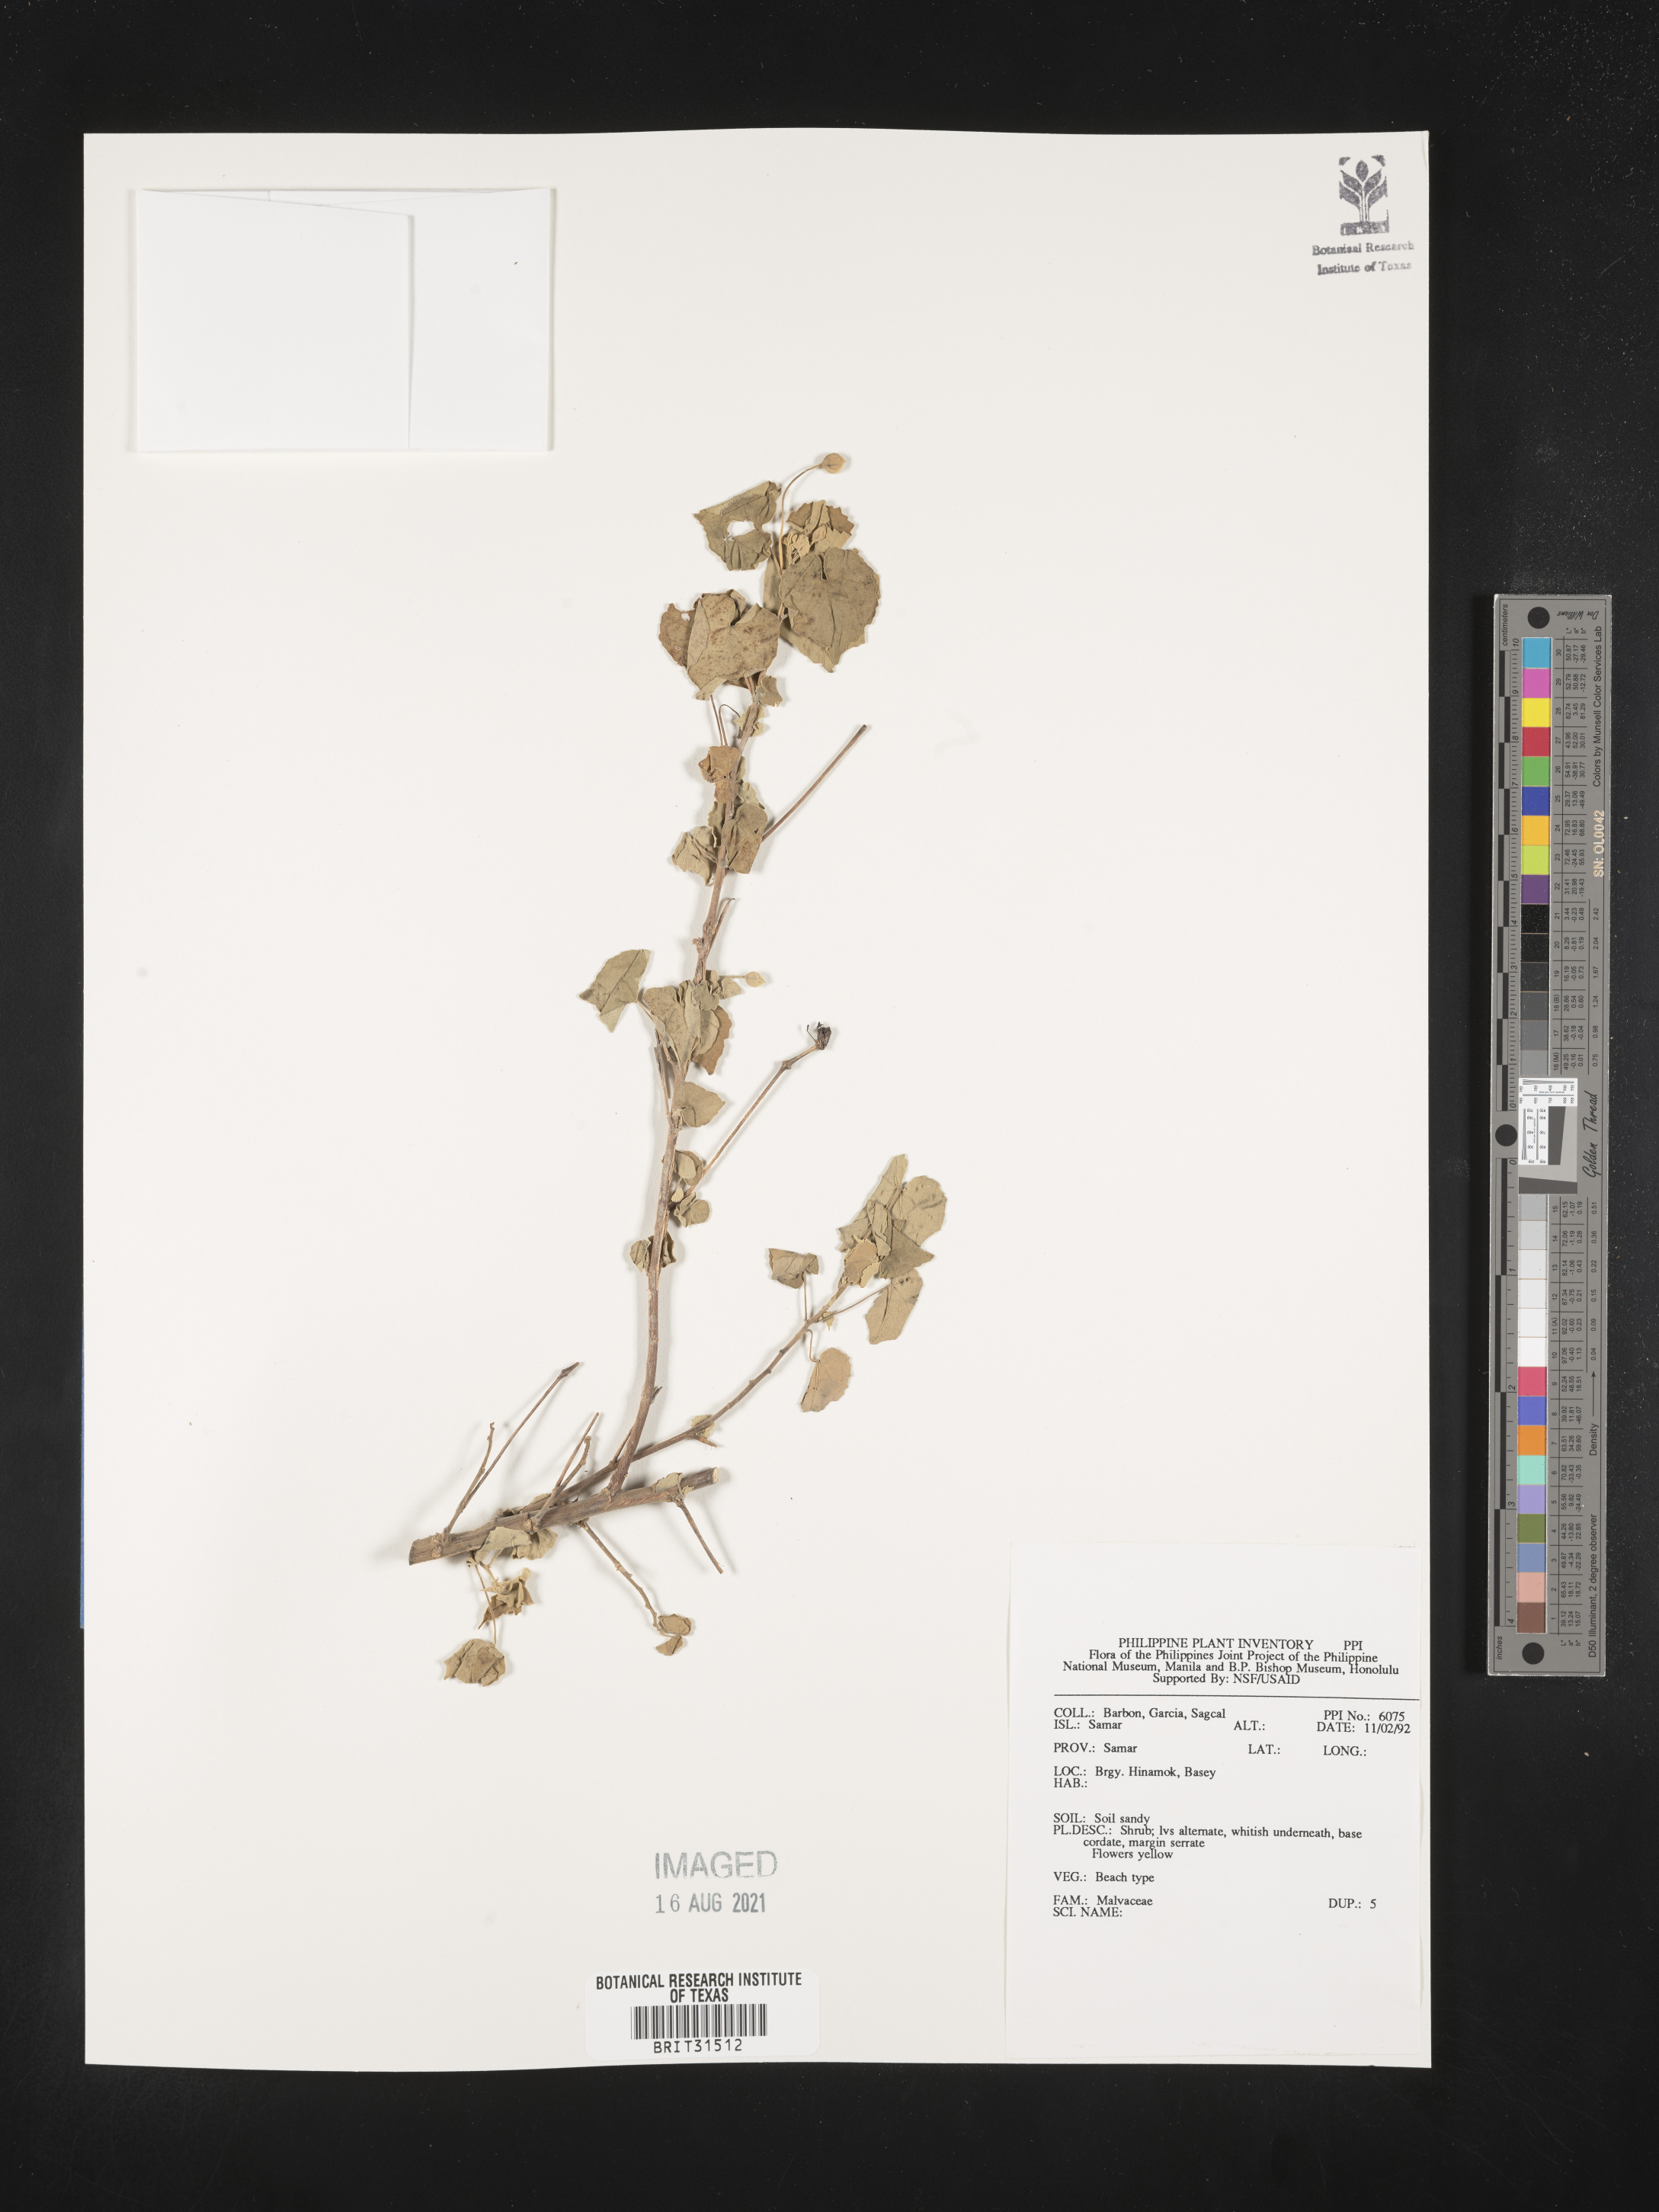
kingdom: Plantae
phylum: Tracheophyta
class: Magnoliopsida
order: Malvales
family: Malvaceae
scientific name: Malvaceae
